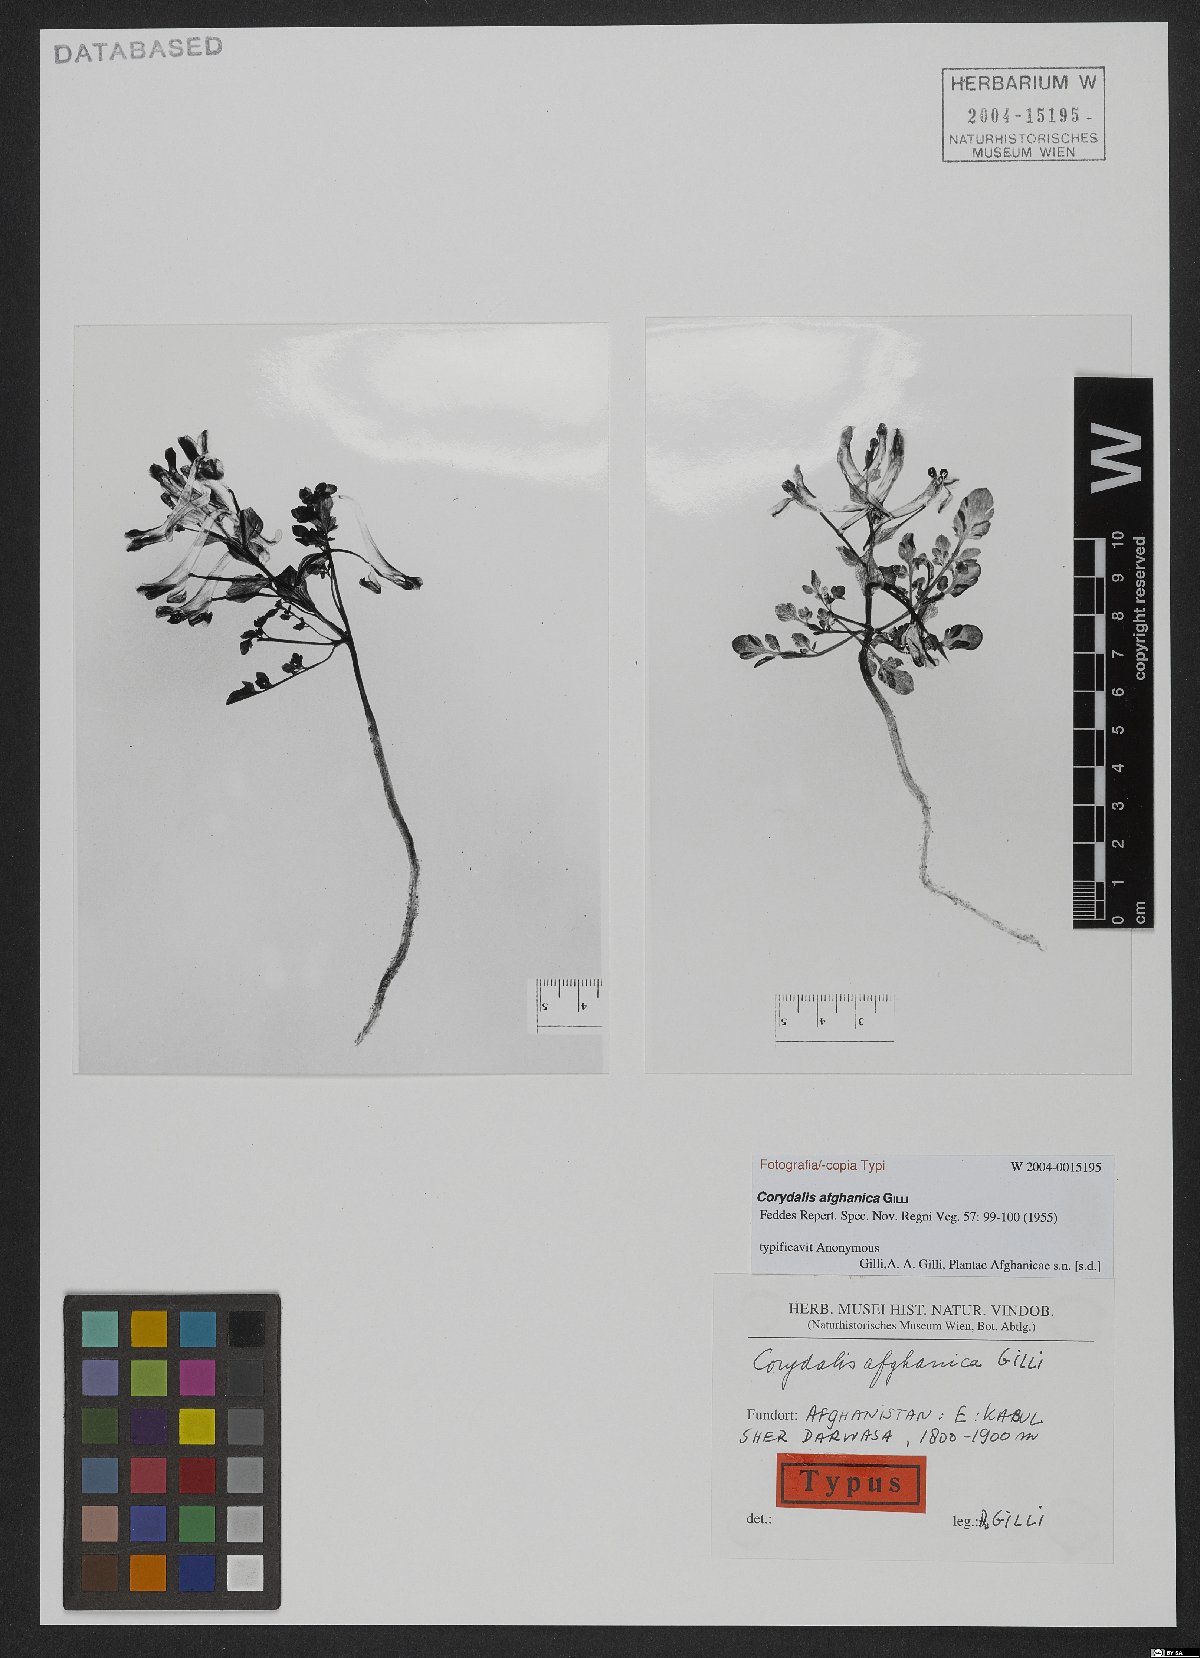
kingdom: Plantae
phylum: Tracheophyta
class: Magnoliopsida
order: Ranunculales
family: Papaveraceae
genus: Corydalis
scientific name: Corydalis afghanica
